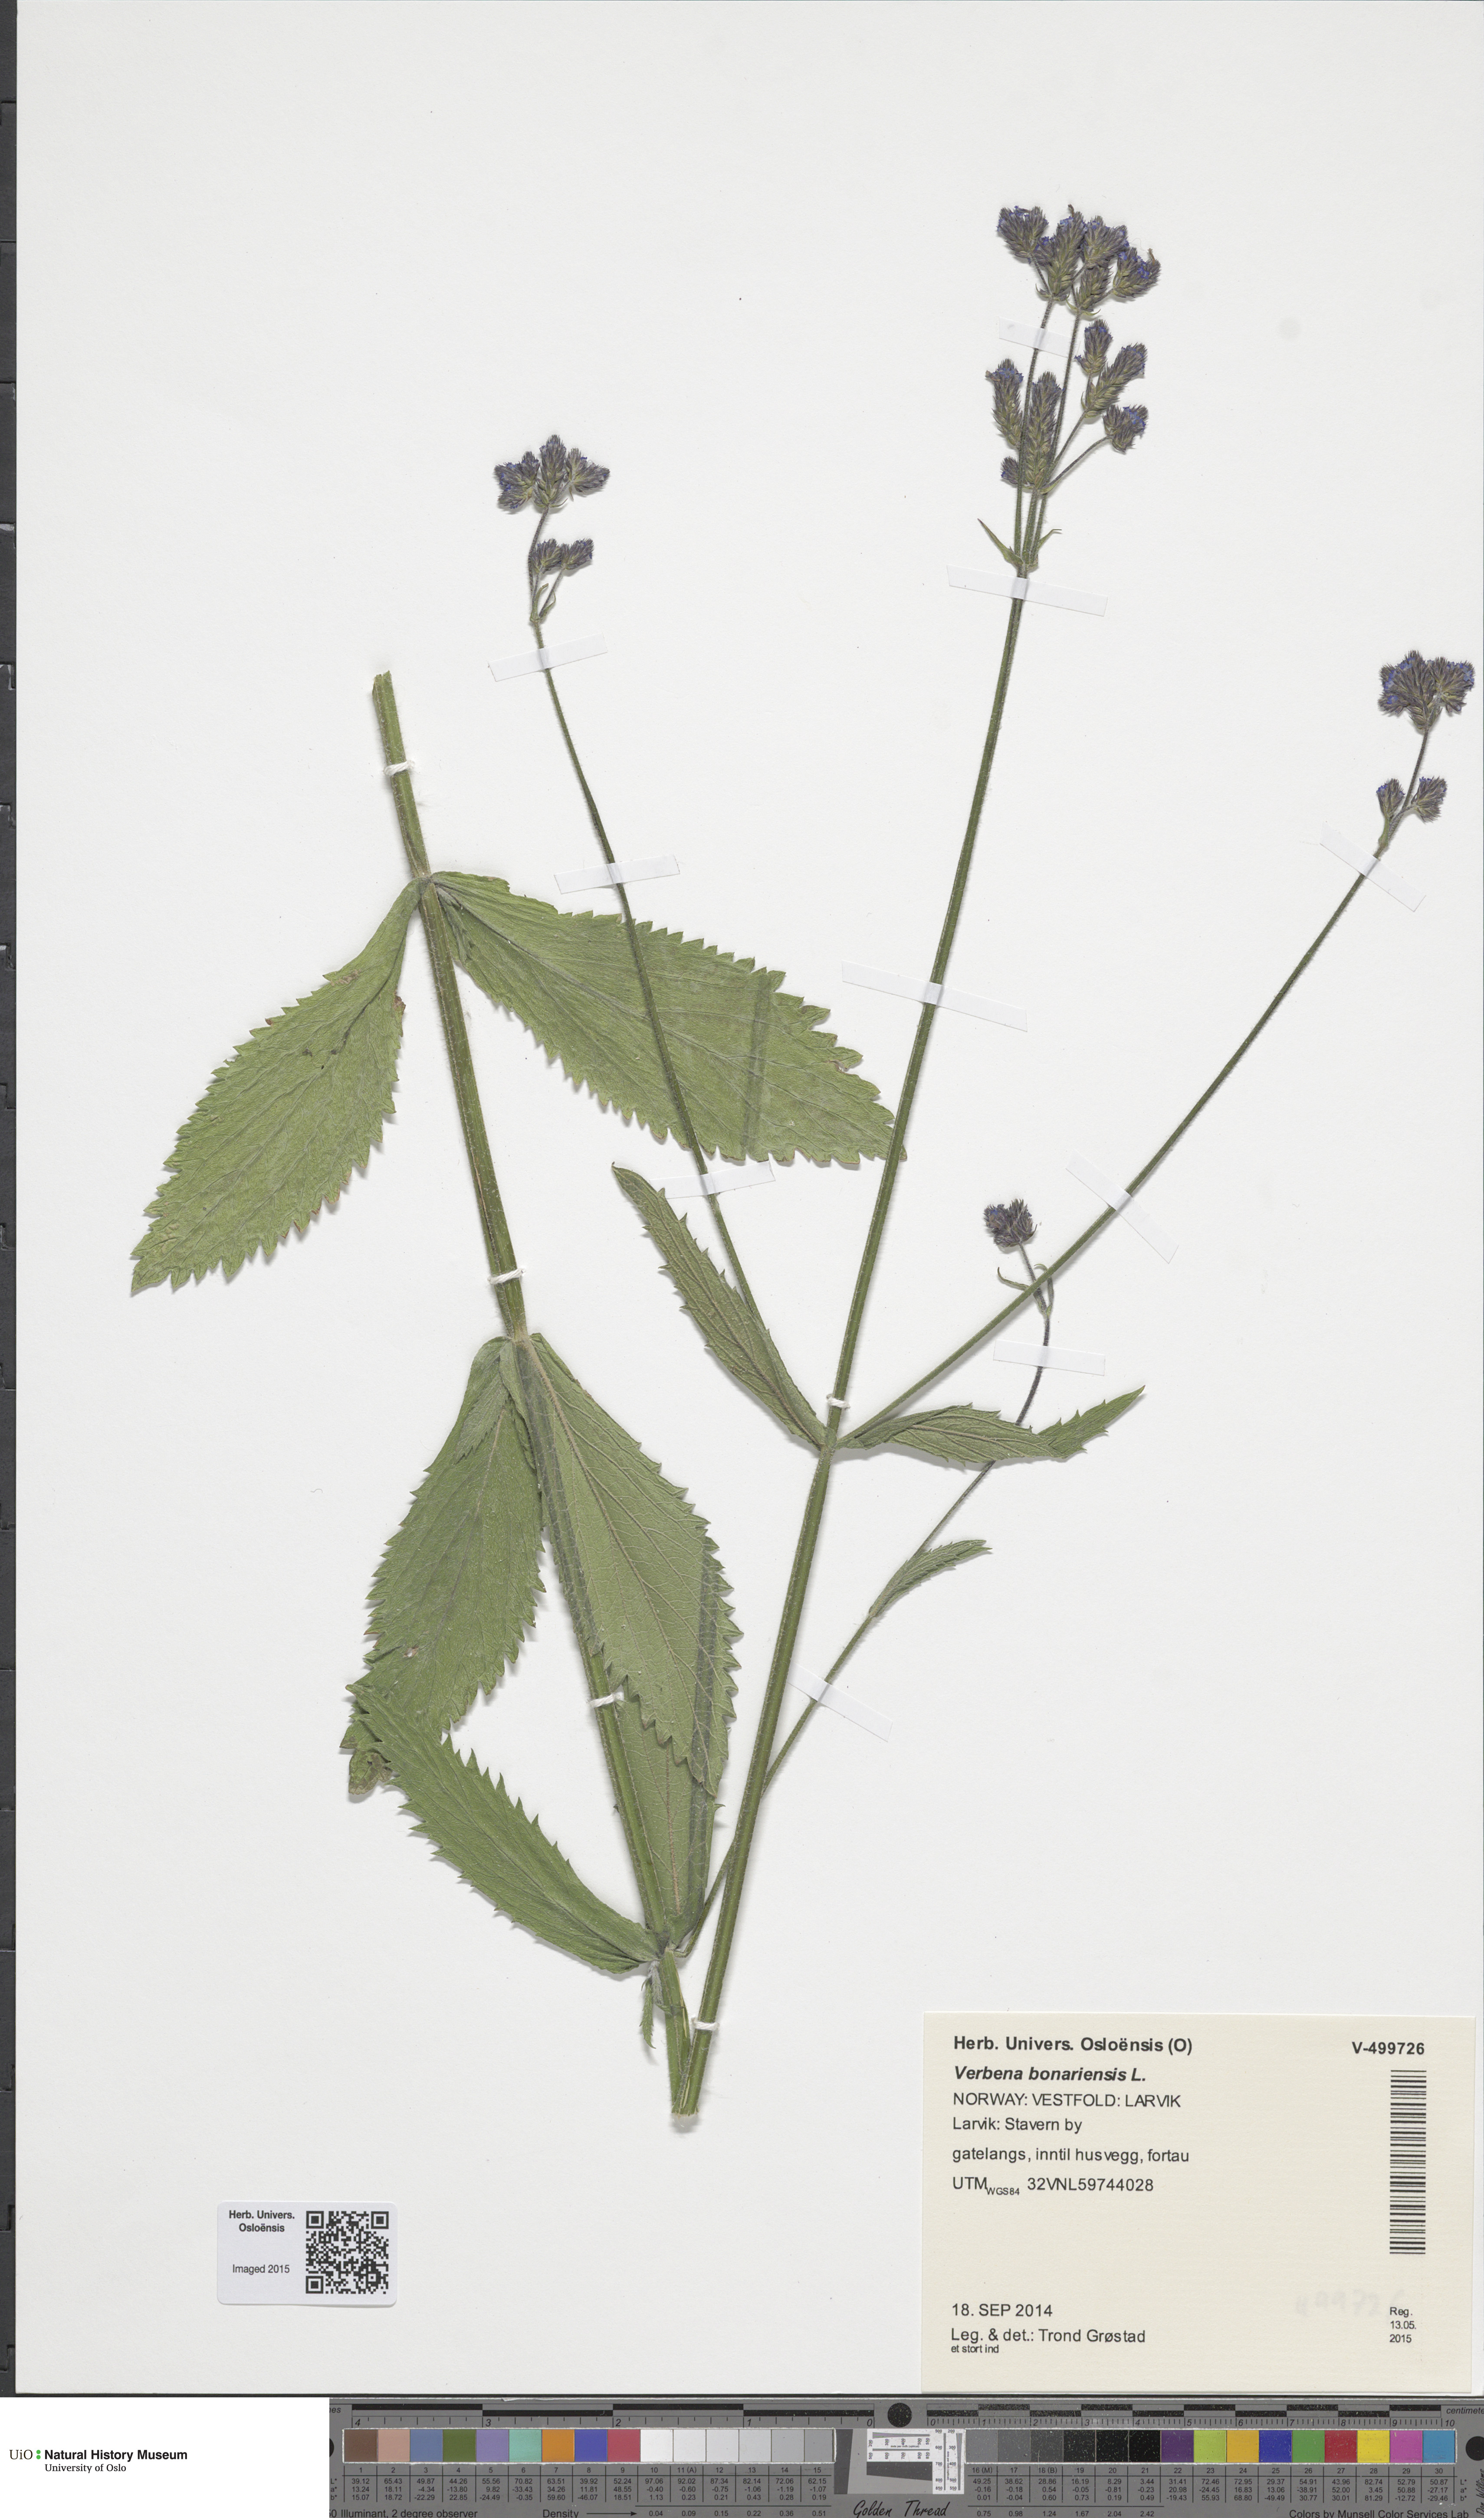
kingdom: Plantae
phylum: Tracheophyta
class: Magnoliopsida
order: Lamiales
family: Verbenaceae
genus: Verbena
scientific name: Verbena bonariensis
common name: Purpletop vervain
